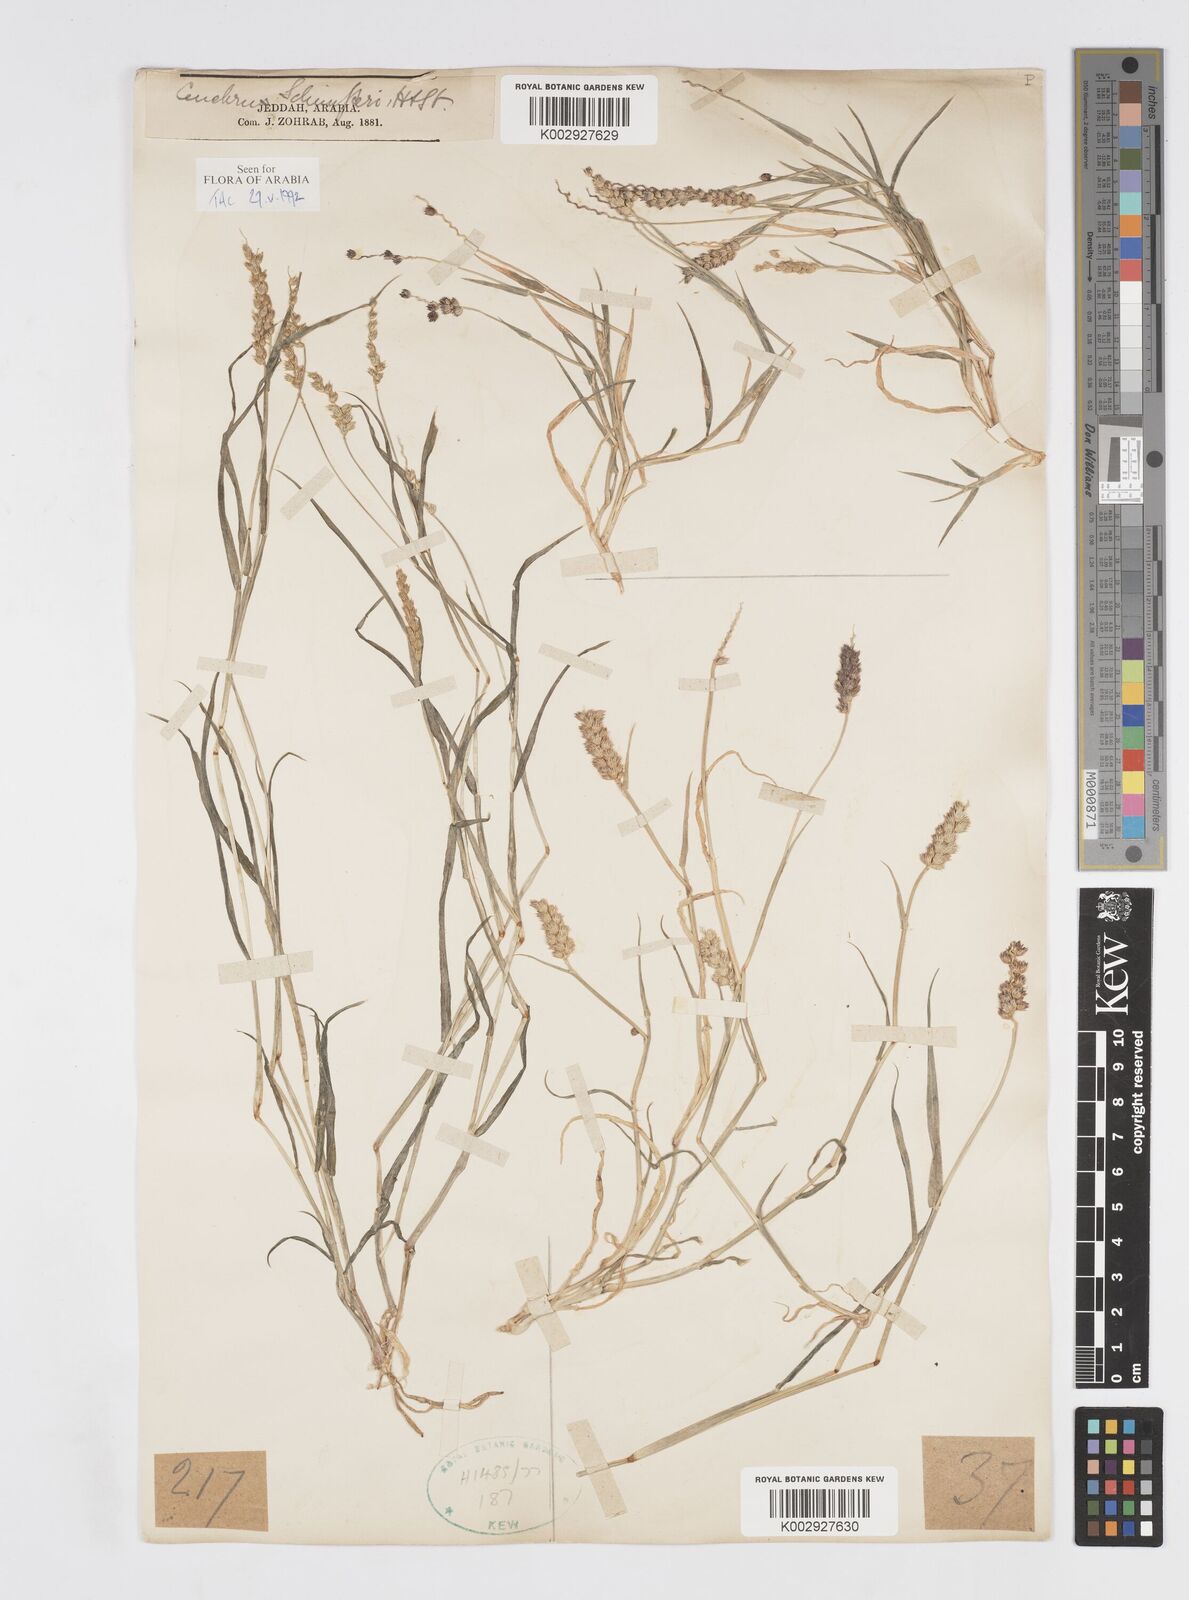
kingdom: Plantae
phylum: Tracheophyta
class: Liliopsida
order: Poales
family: Poaceae
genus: Cenchrus
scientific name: Cenchrus setigerus
